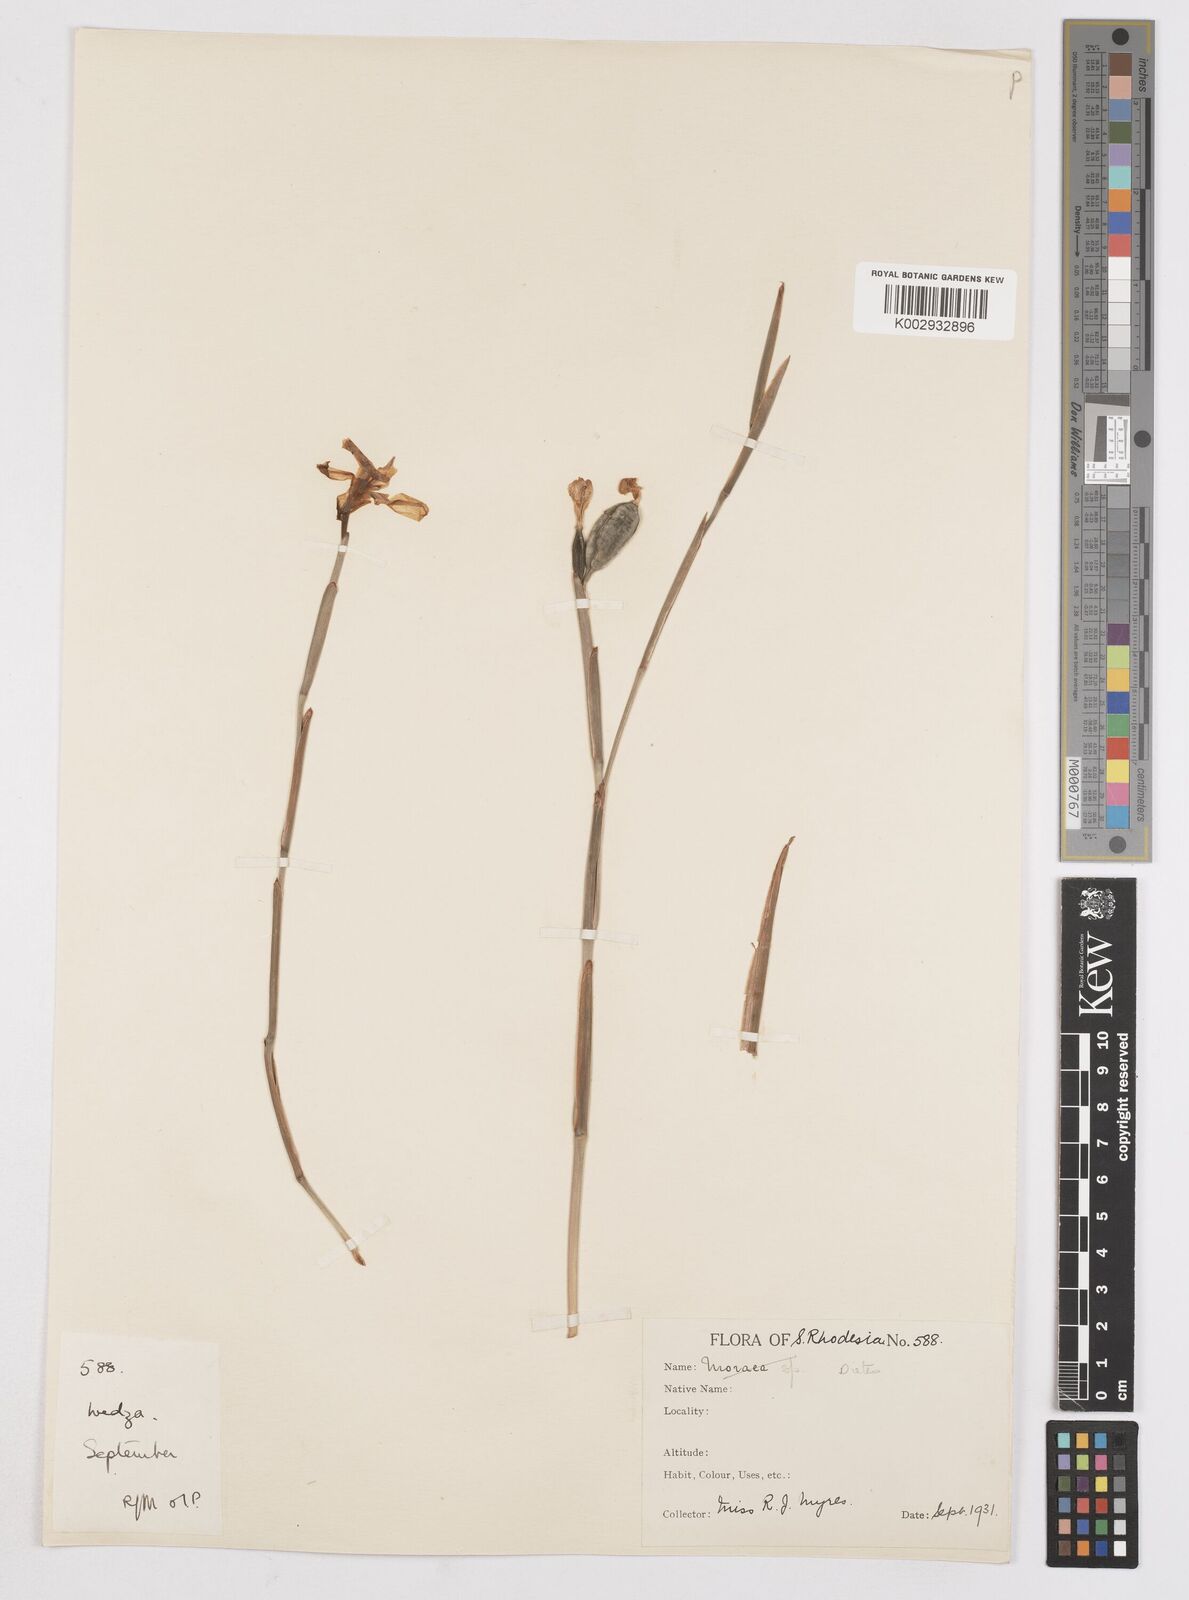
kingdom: Plantae
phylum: Tracheophyta
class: Liliopsida
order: Asparagales
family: Iridaceae
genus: Dietes
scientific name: Dietes iridioides
